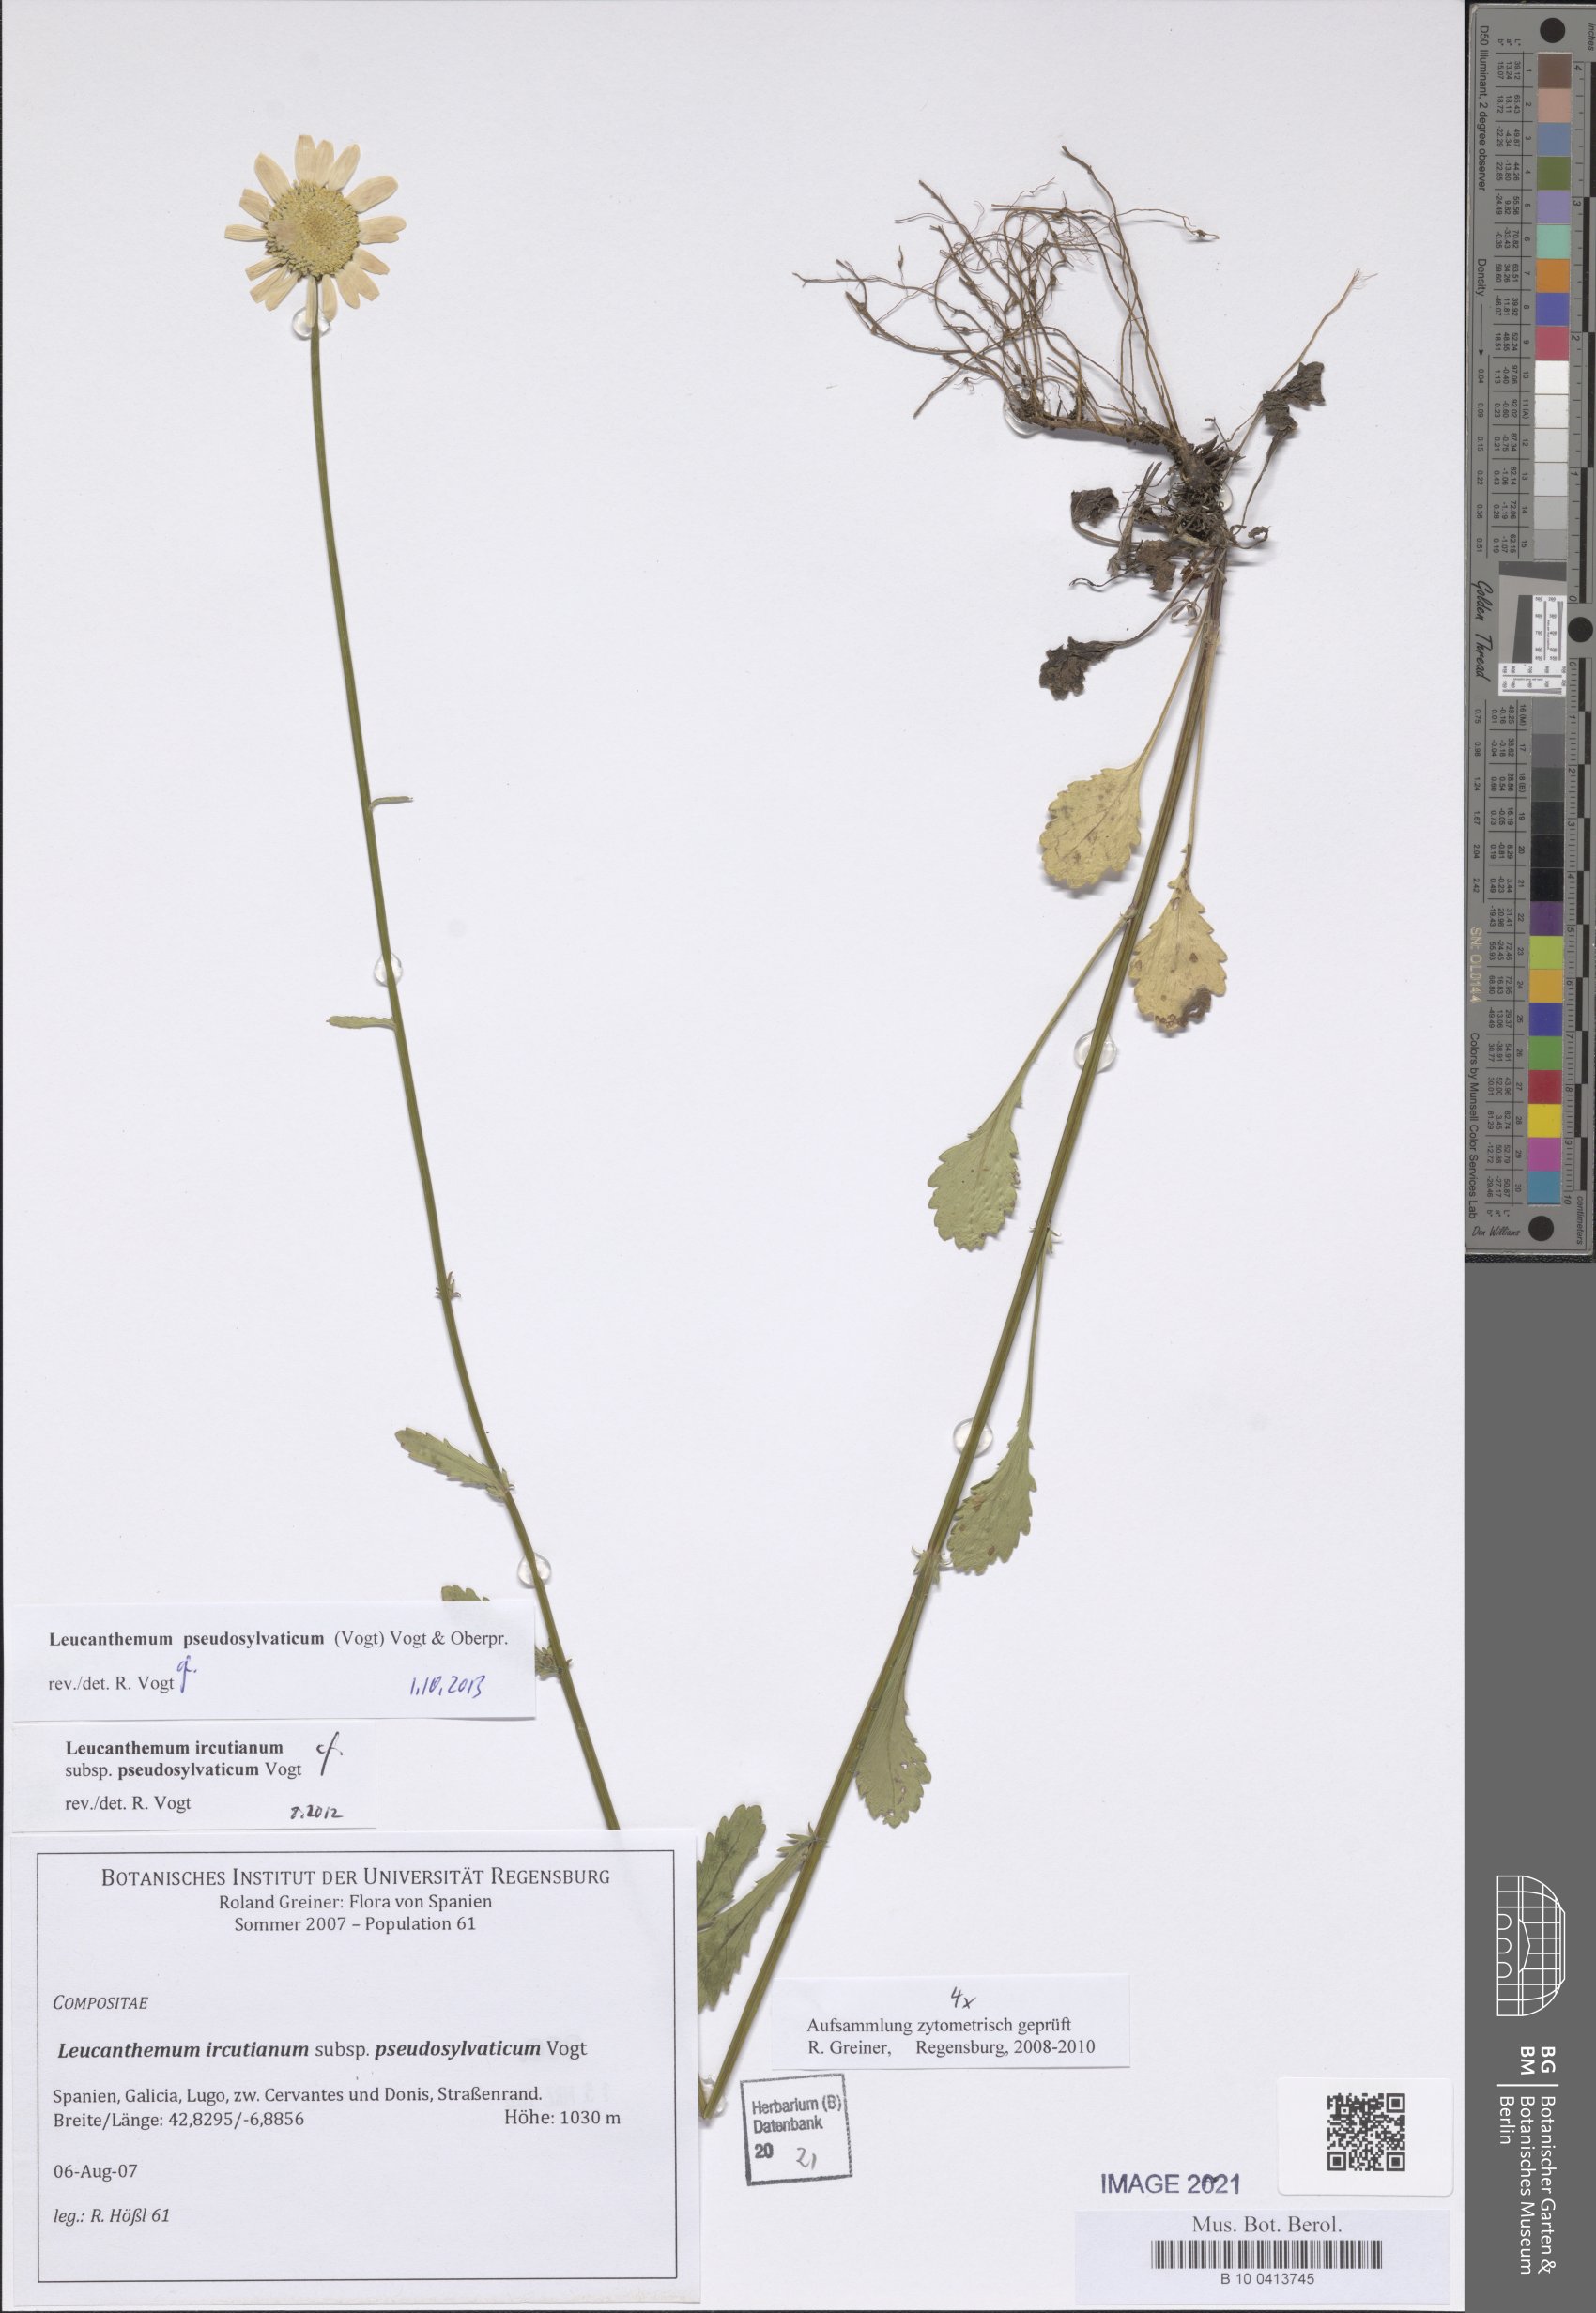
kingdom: Plantae
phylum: Tracheophyta
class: Magnoliopsida
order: Asterales
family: Asteraceae
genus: Leucanthemum
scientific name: Leucanthemum pseudosylvaticum
